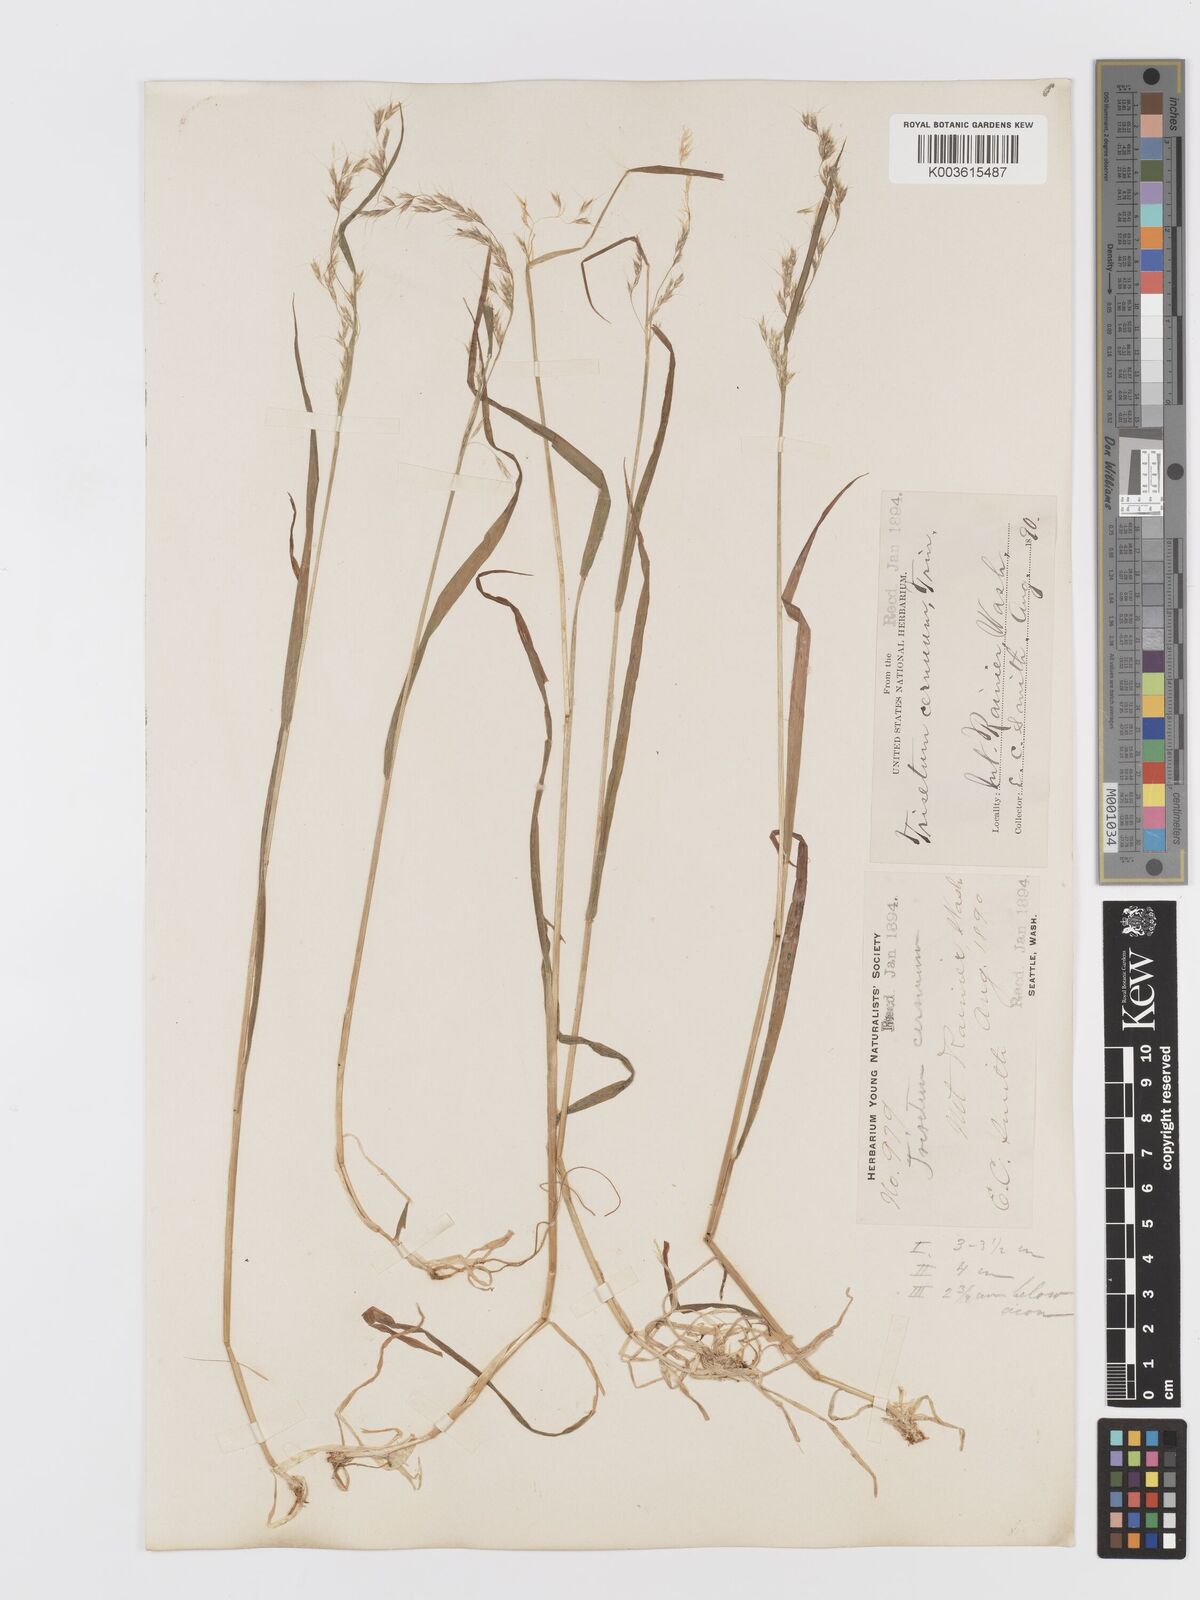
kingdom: Plantae
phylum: Tracheophyta
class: Liliopsida
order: Poales
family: Poaceae
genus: Graphephorum
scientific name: Graphephorum cernuum
